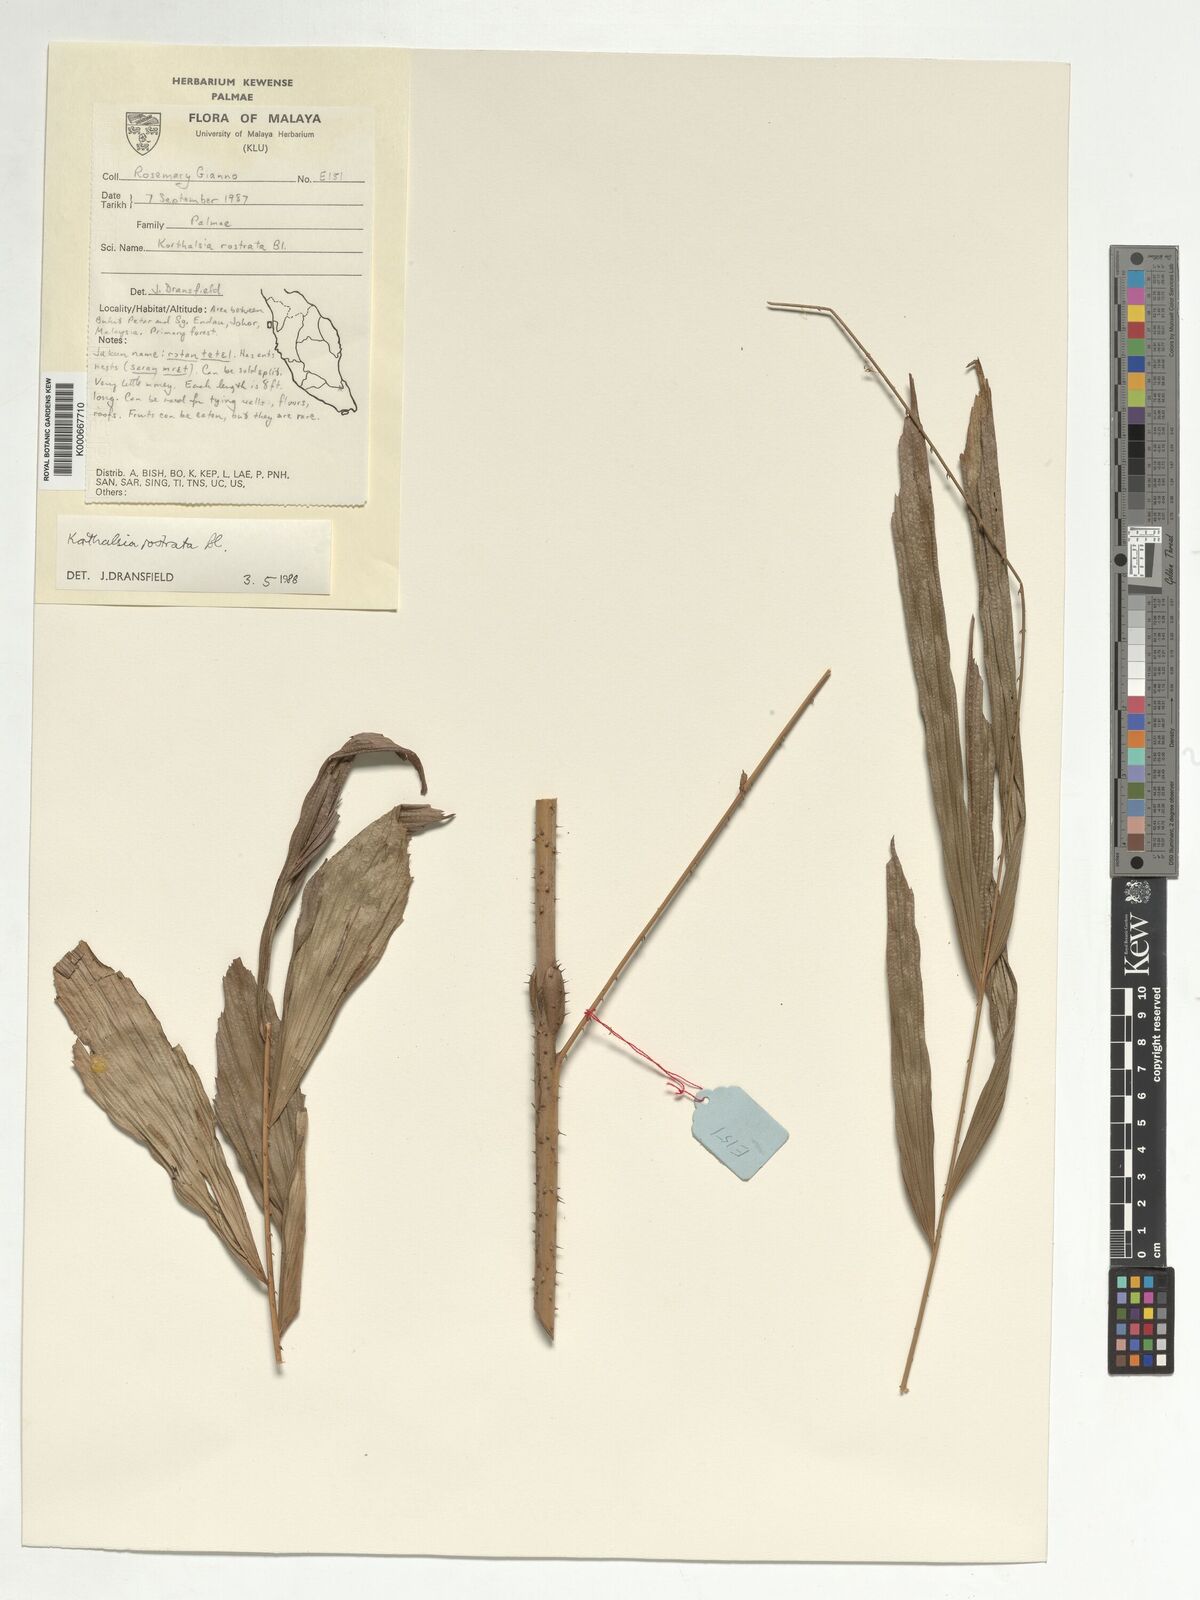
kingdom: Plantae
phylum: Tracheophyta
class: Liliopsida
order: Arecales
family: Arecaceae
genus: Korthalsia
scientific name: Korthalsia rostrata
